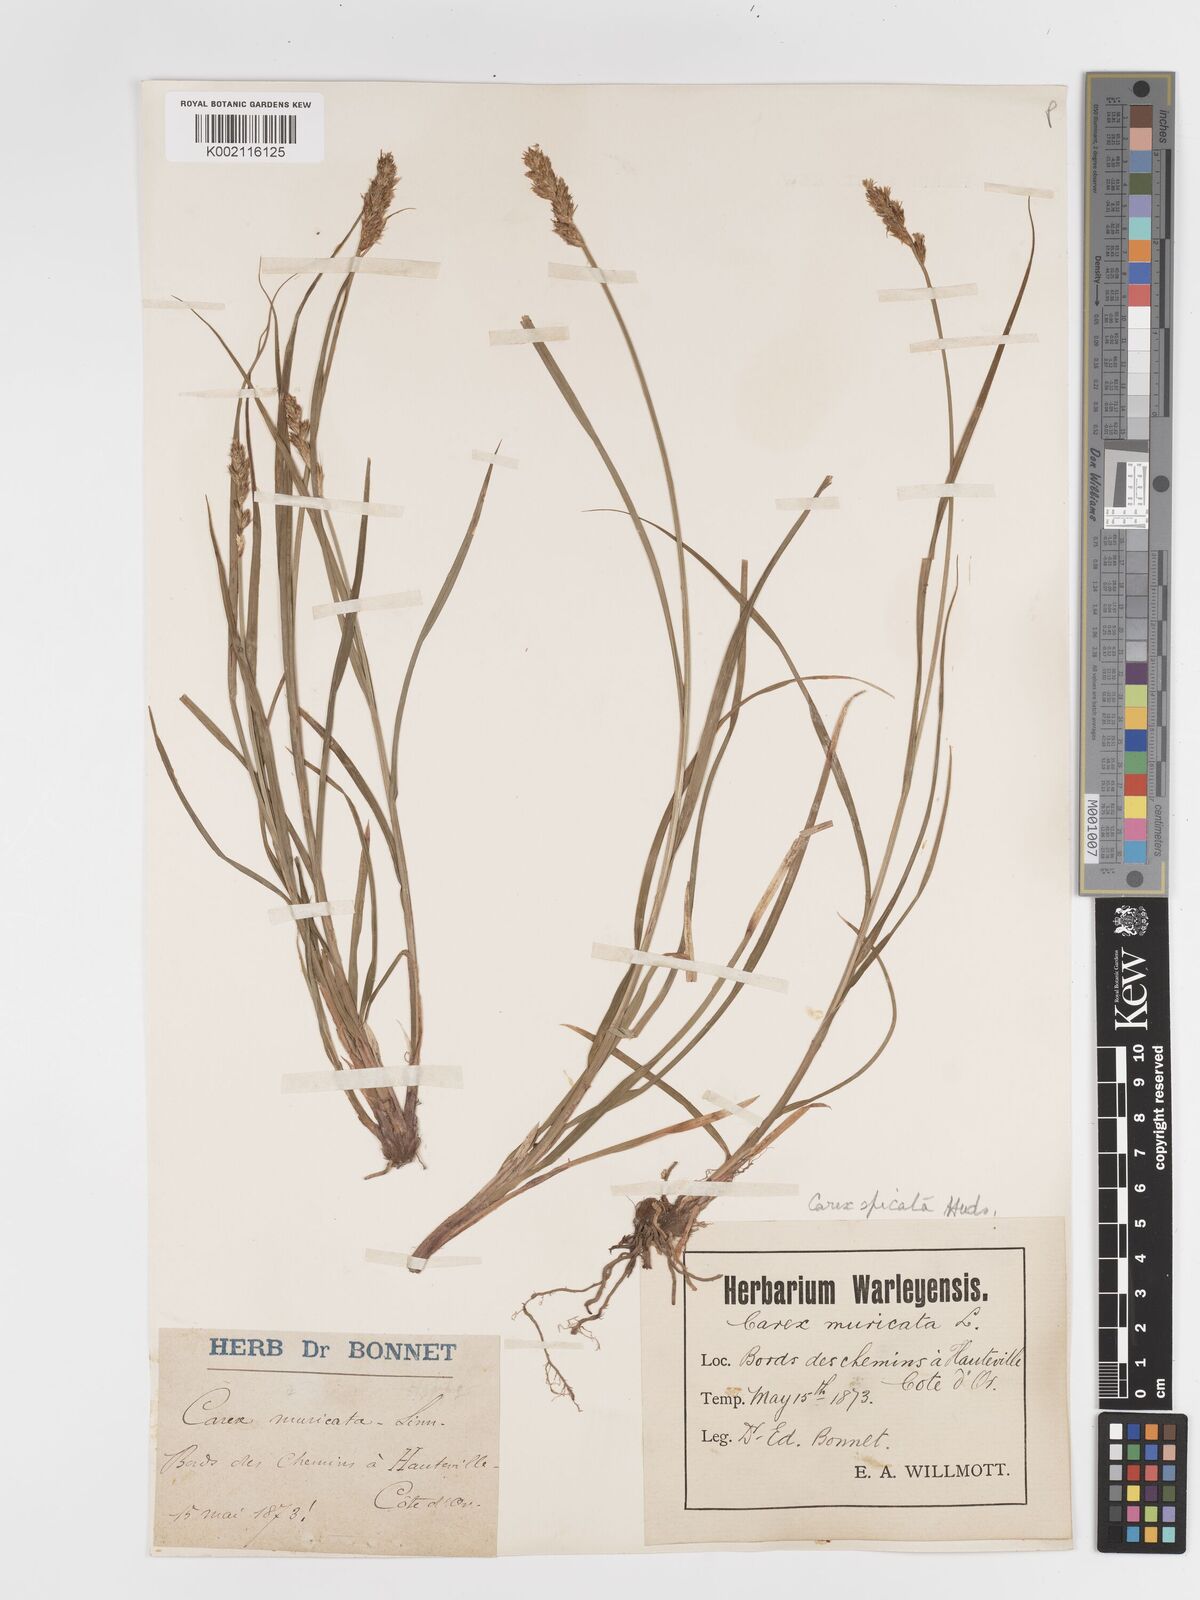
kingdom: Plantae
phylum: Tracheophyta
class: Liliopsida
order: Poales
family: Cyperaceae
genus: Carex
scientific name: Carex spicata
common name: Spiked sedge
